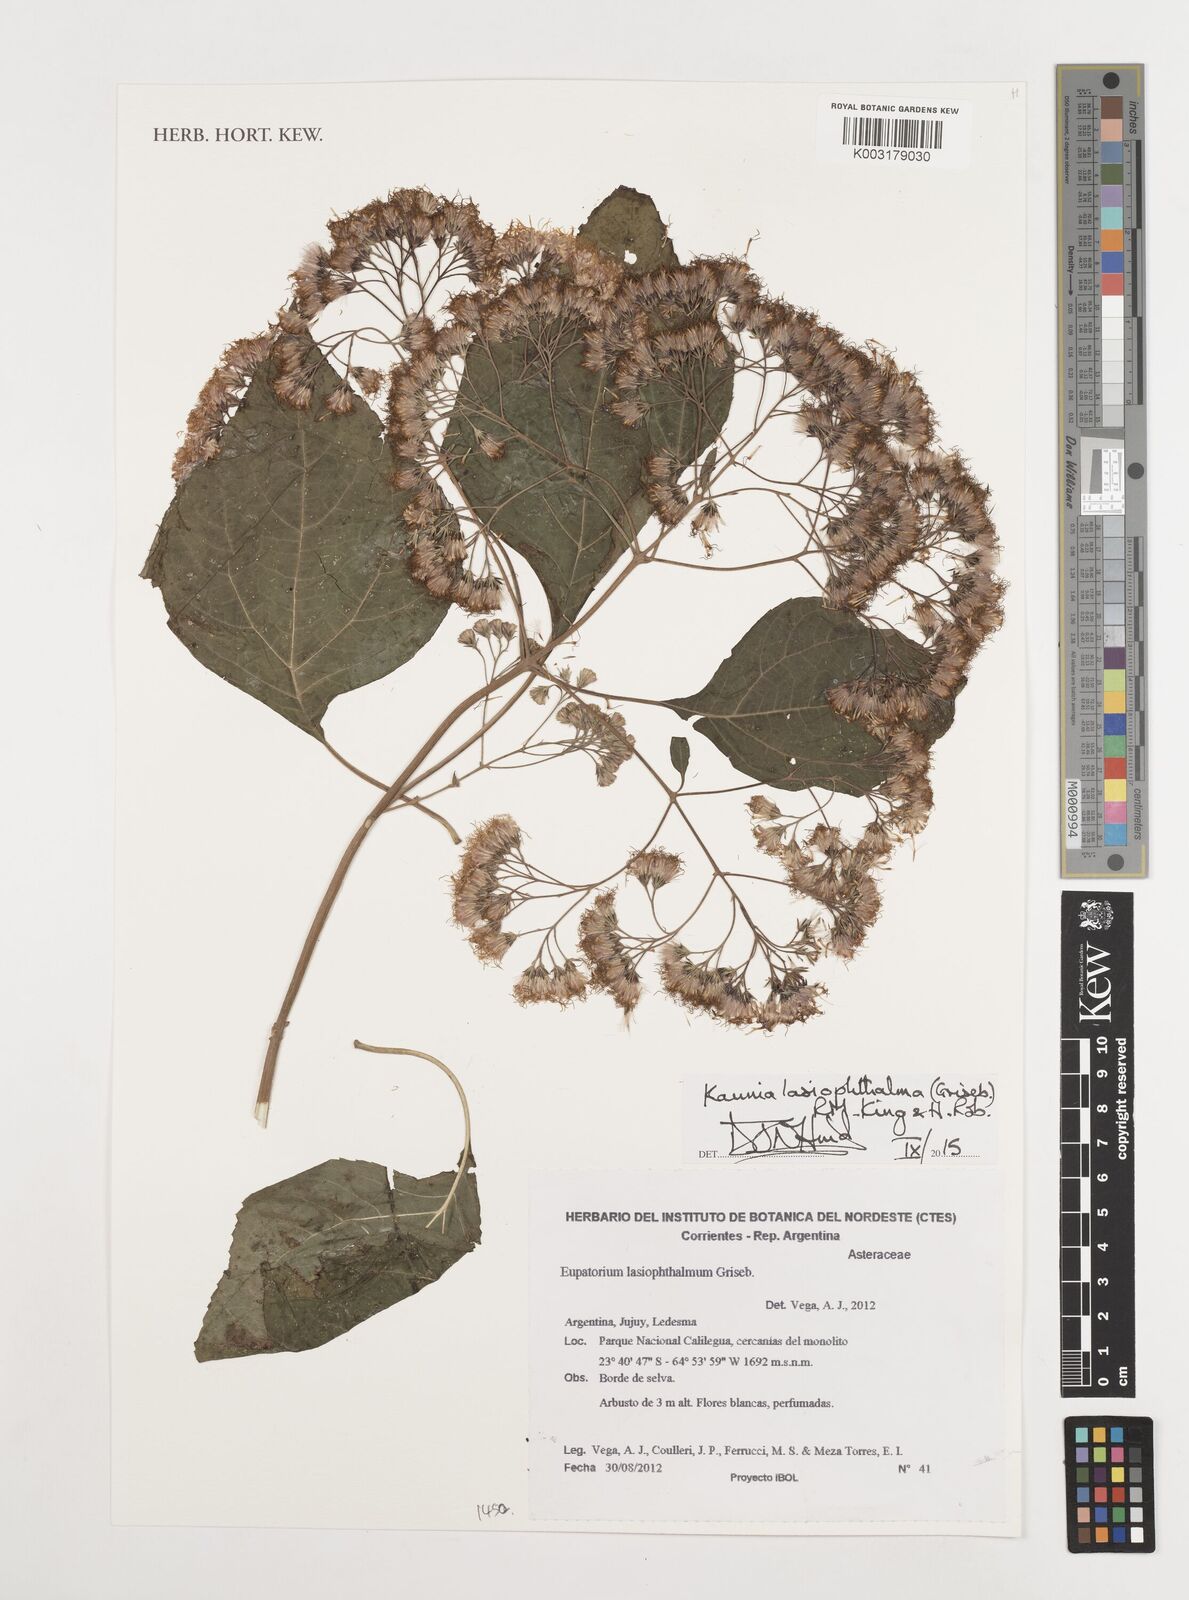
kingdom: Plantae
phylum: Tracheophyta
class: Magnoliopsida
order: Asterales
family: Asteraceae
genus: Kaunia
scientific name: Kaunia lasiophthalma
